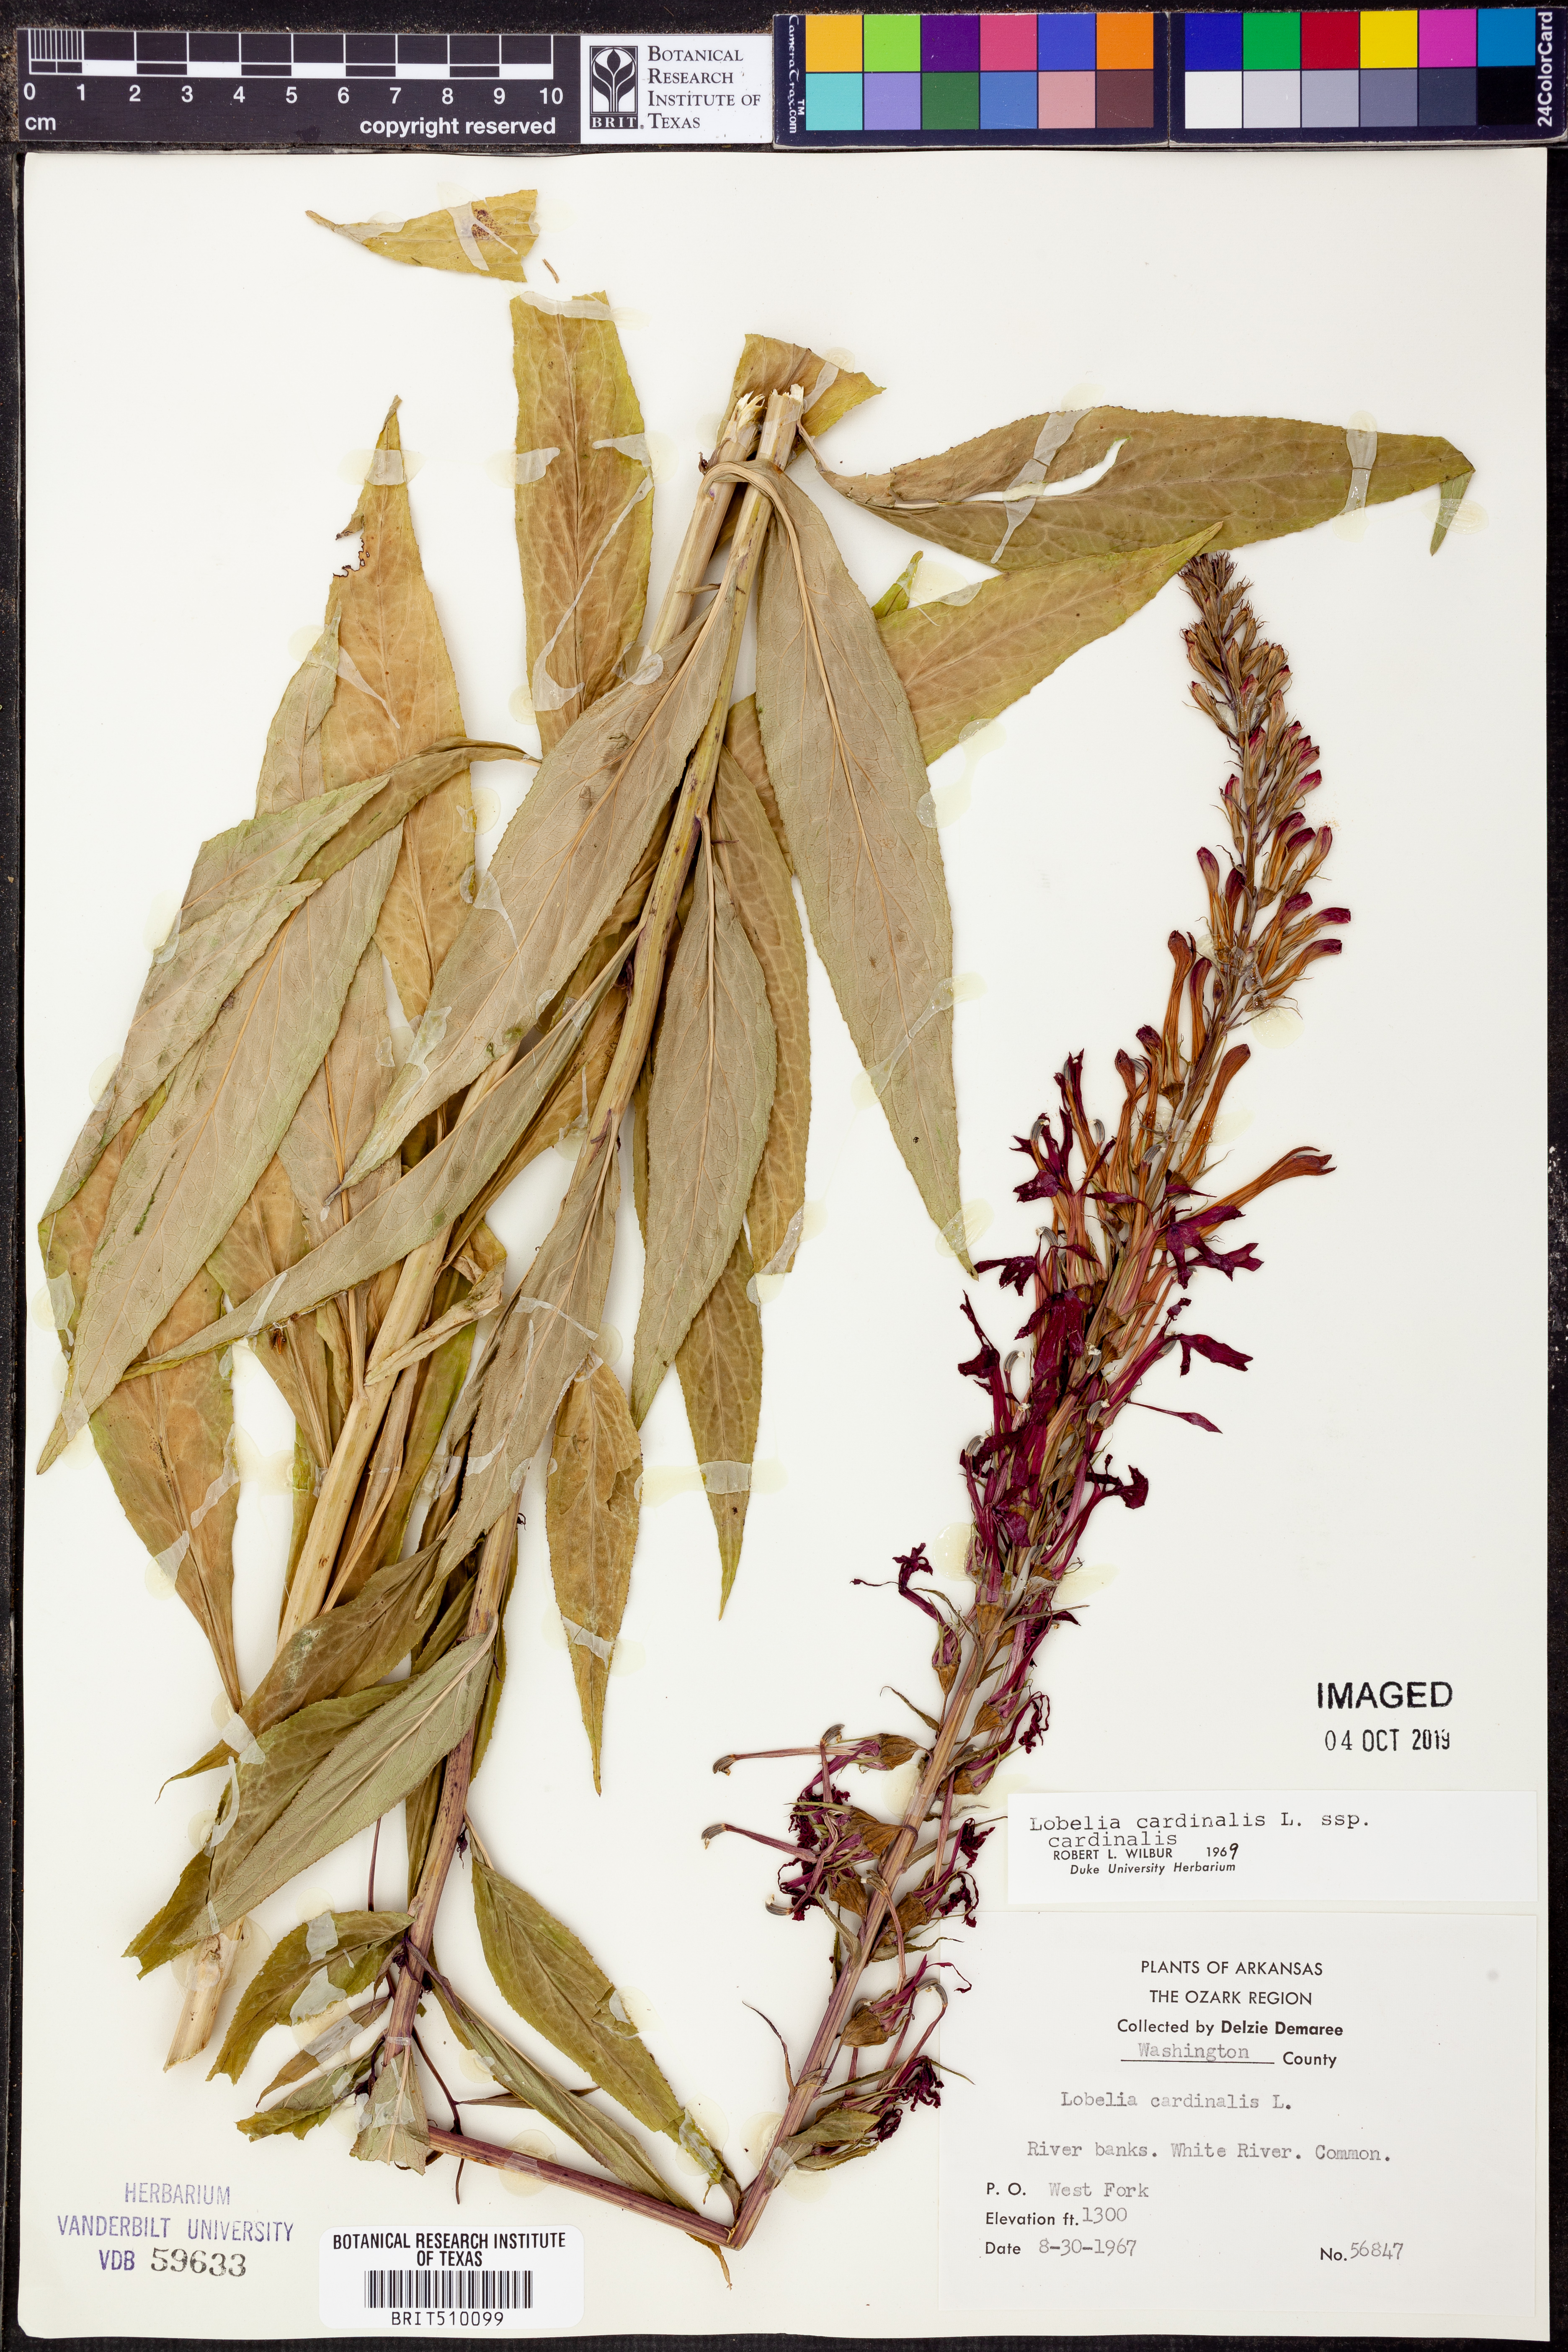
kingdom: Plantae
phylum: Tracheophyta
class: Magnoliopsida
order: Asterales
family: Campanulaceae
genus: Lobelia
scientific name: Lobelia cardinalis
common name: Cardinal flower
